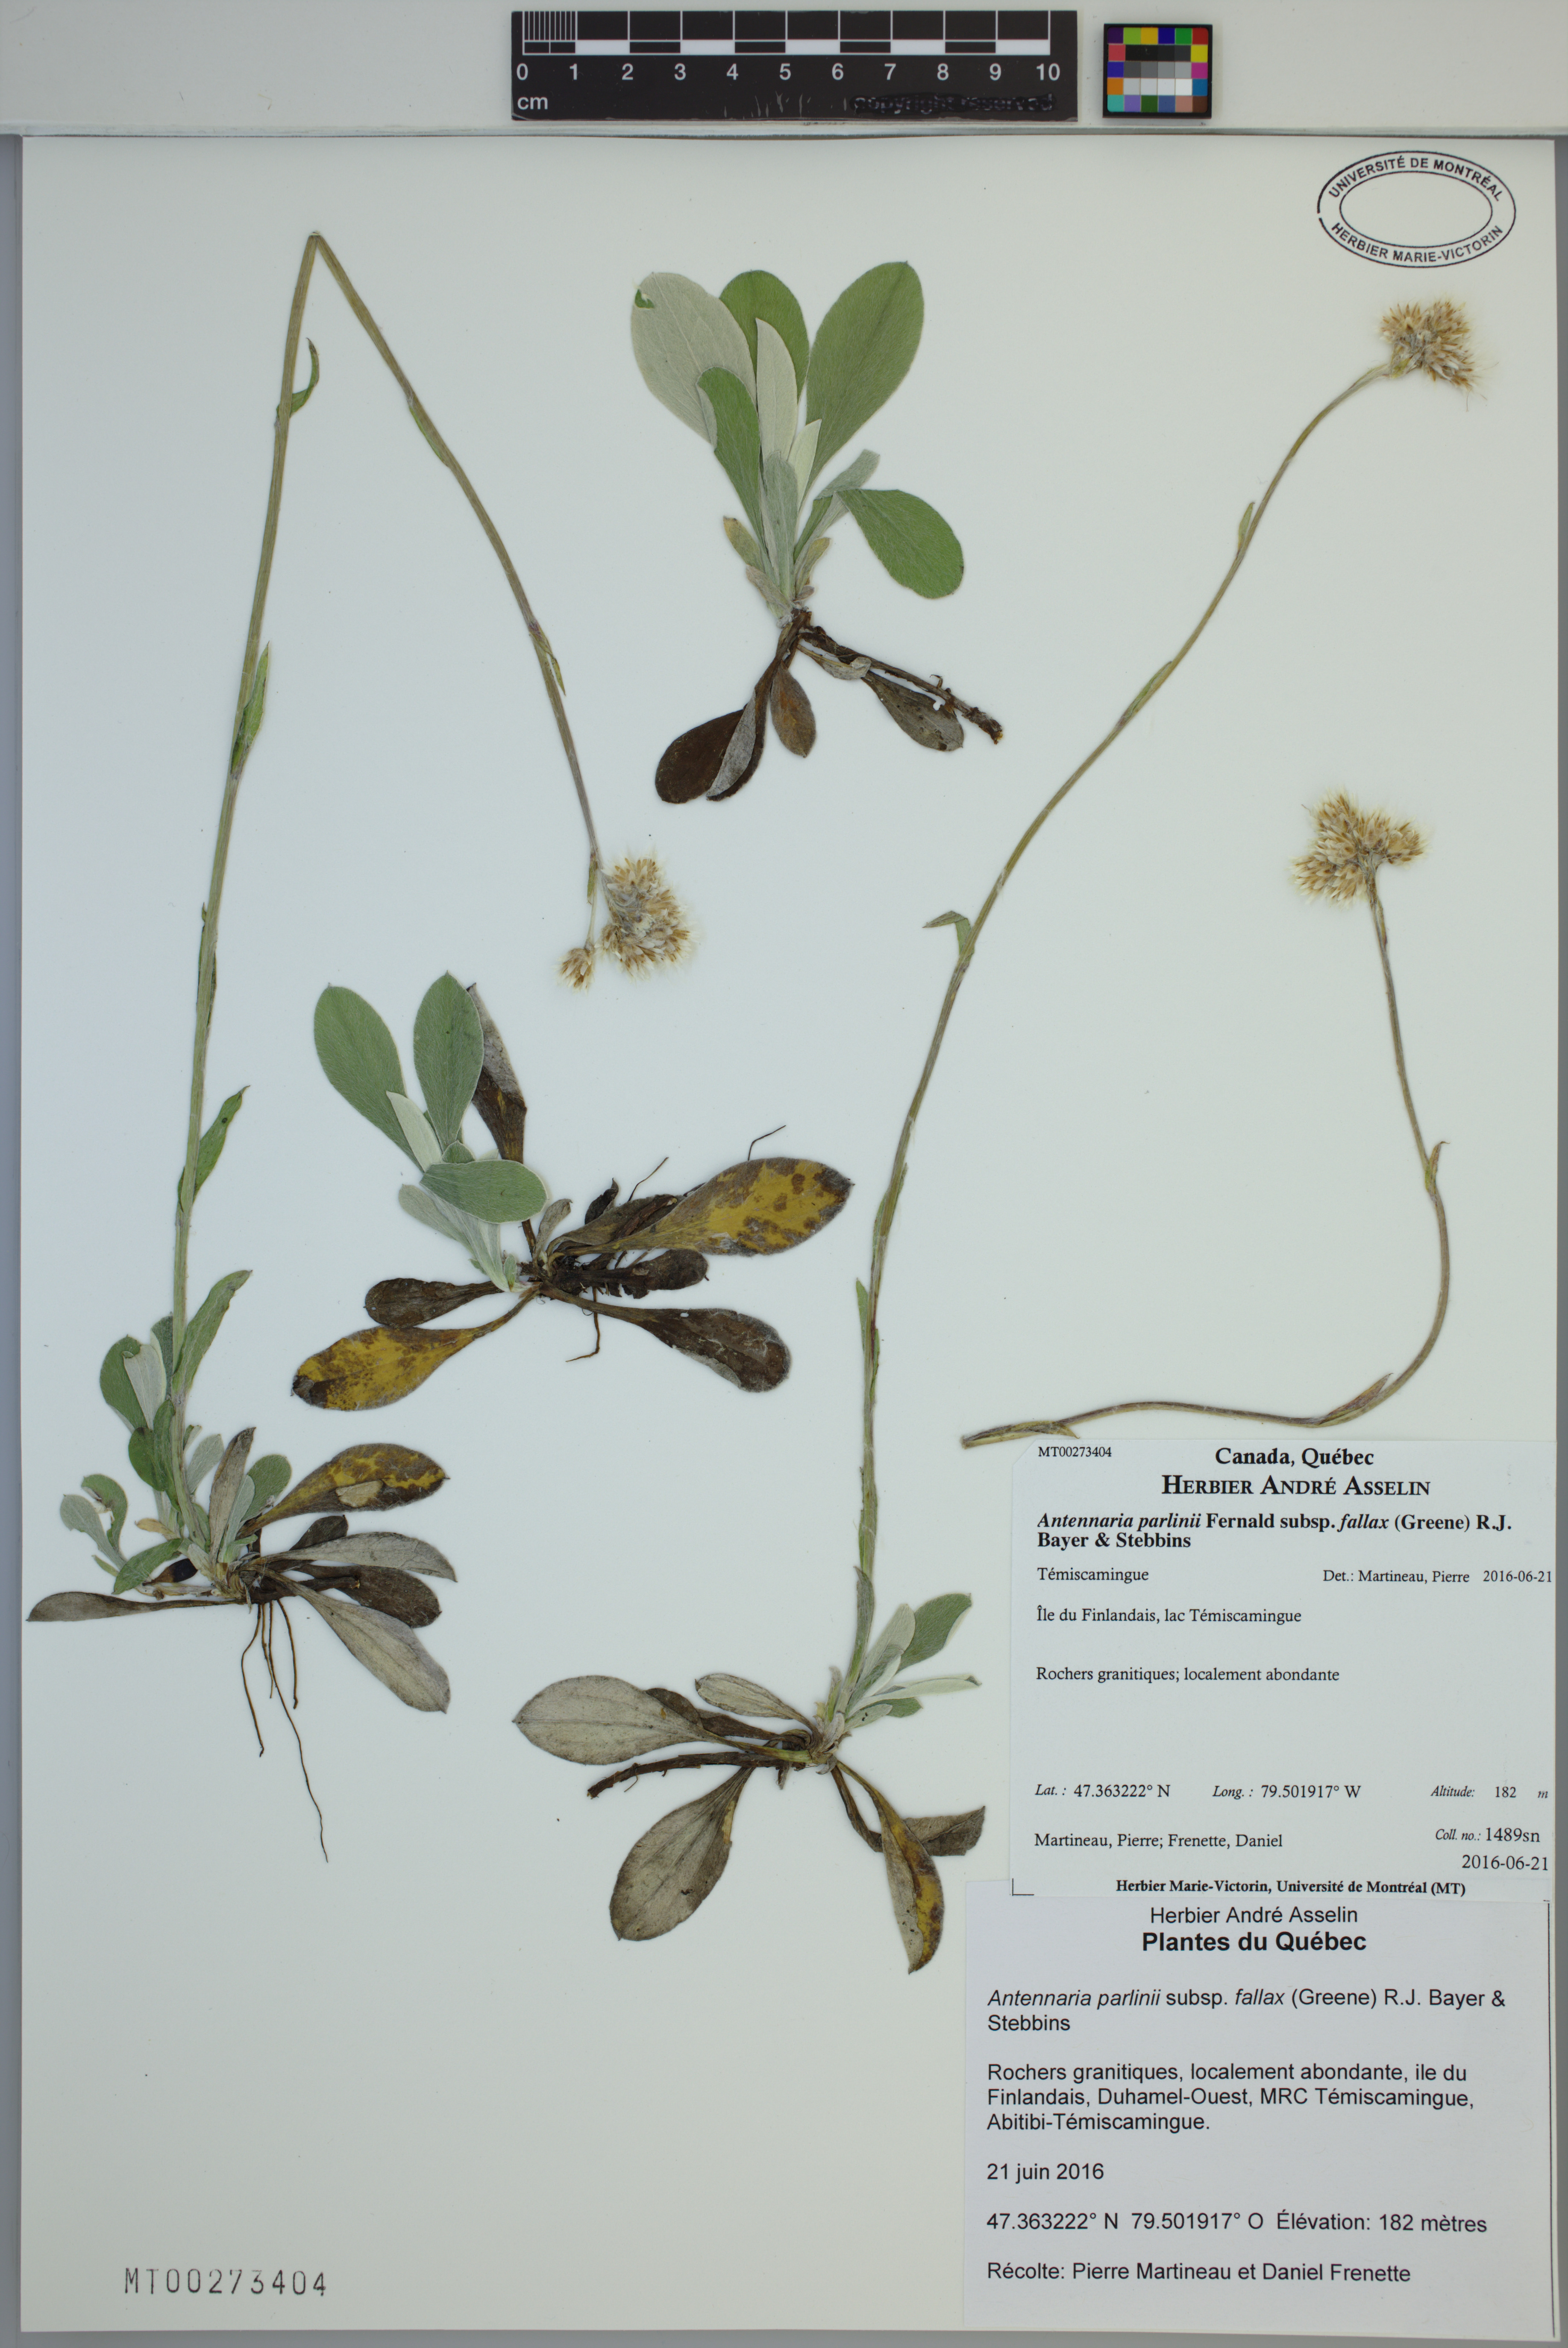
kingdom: Plantae
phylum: Tracheophyta
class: Magnoliopsida
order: Asterales
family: Asteraceae
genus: Antennaria
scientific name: Antennaria parlinii
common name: Parlin's pussytoes
